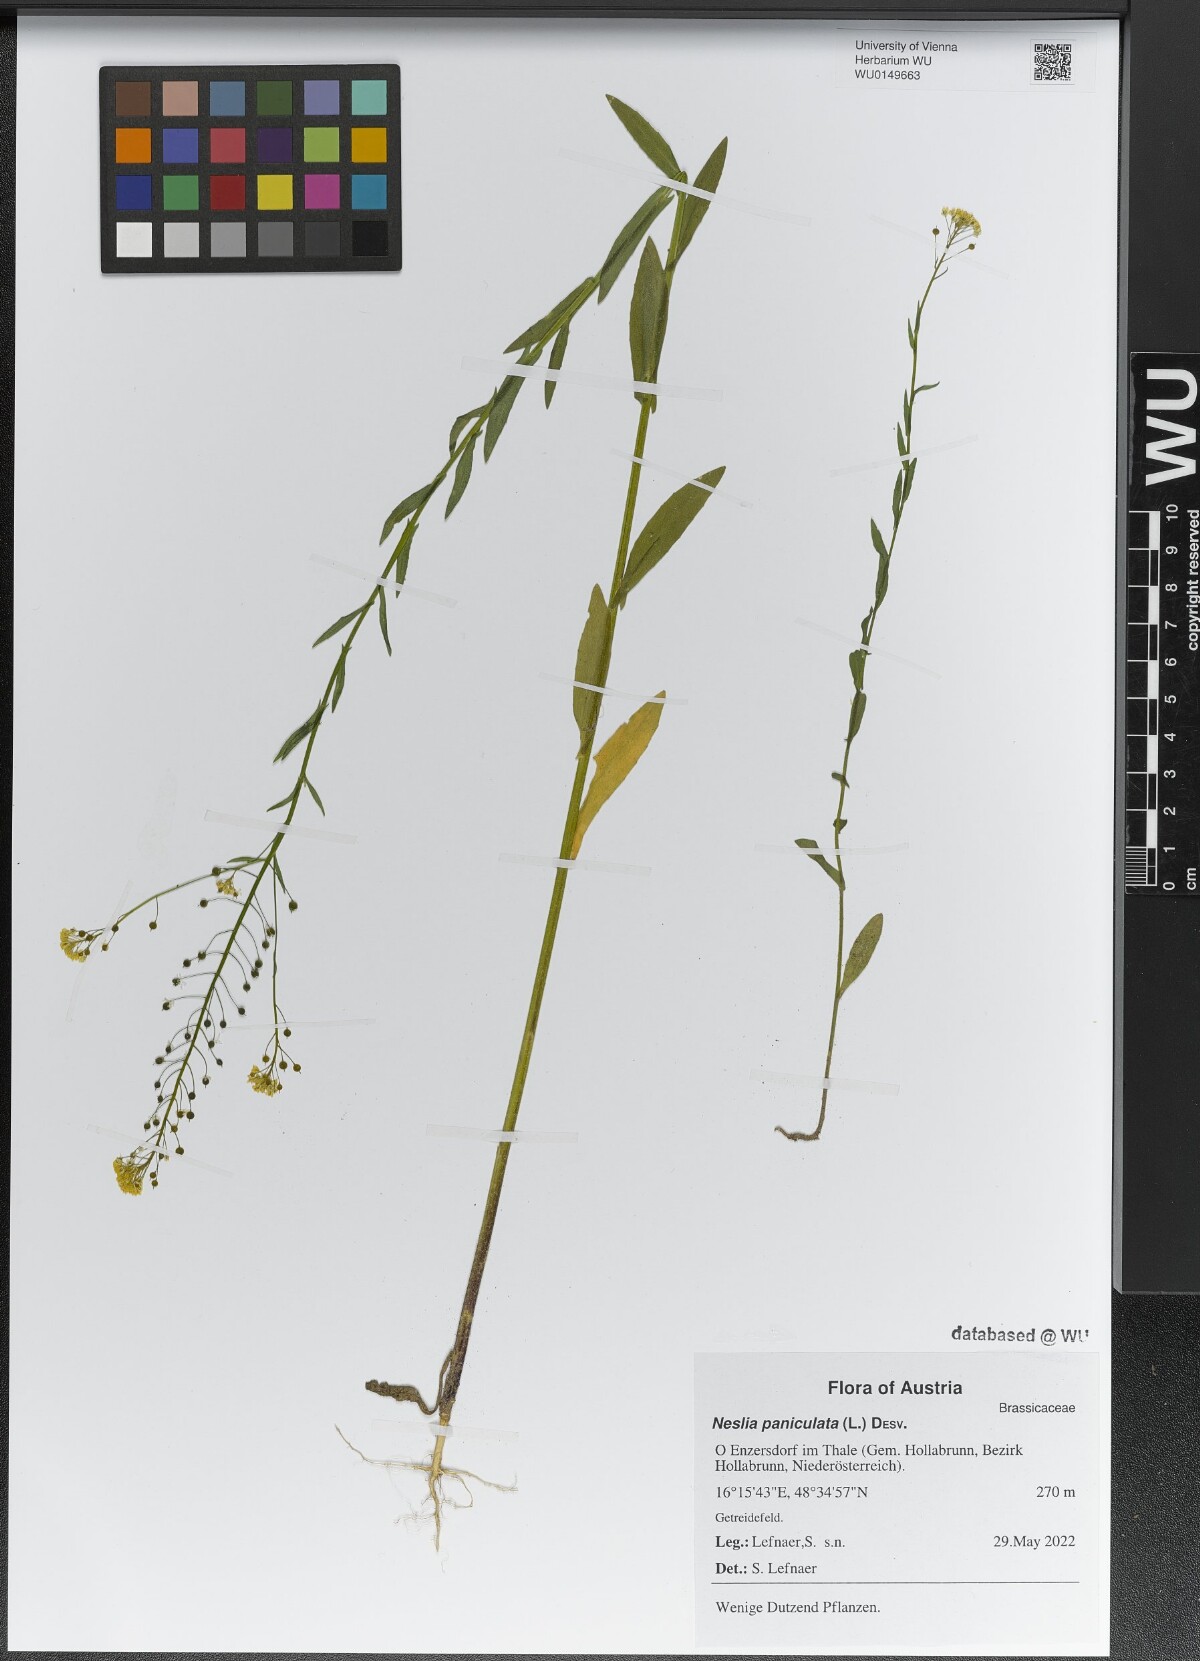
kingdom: Plantae
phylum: Tracheophyta
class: Magnoliopsida
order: Brassicales
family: Brassicaceae
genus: Neslia
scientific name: Neslia paniculata
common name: Ball mustard
